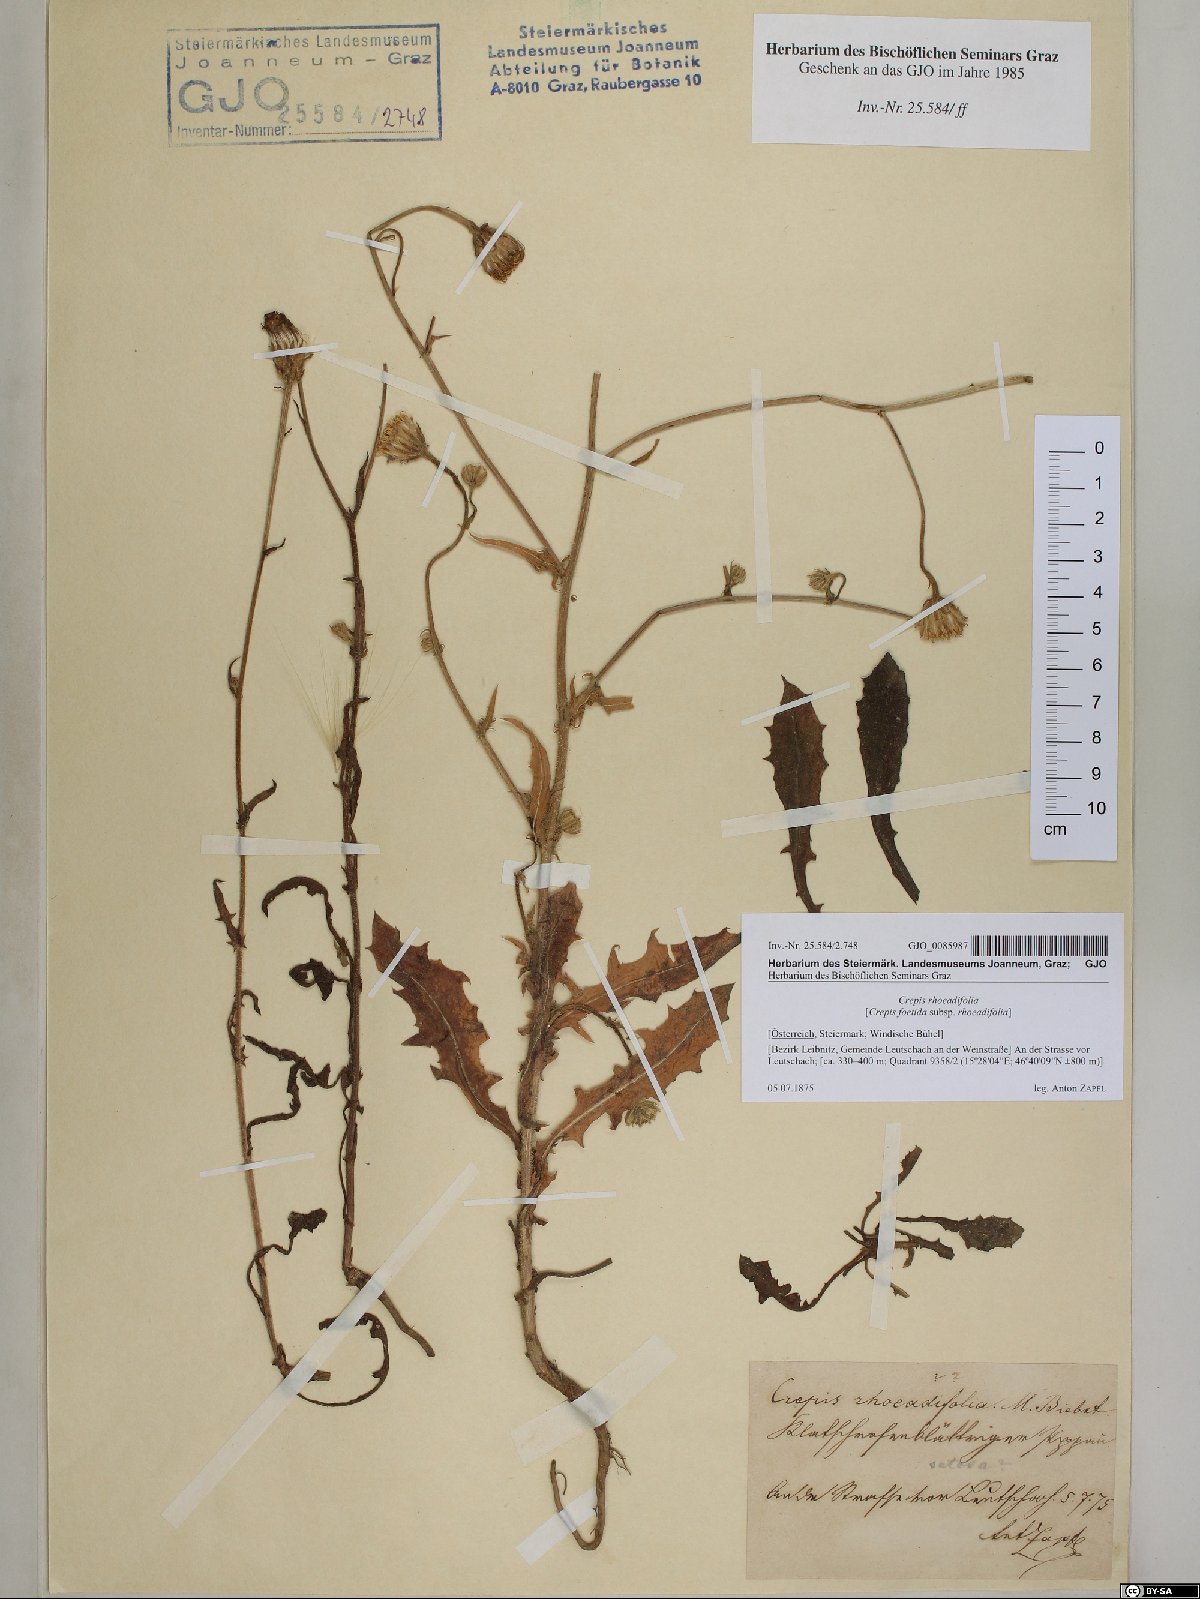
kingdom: Plantae
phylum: Tracheophyta
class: Magnoliopsida
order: Asterales
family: Asteraceae
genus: Crepis
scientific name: Crepis foetida
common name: Stinking hawk's-beard
